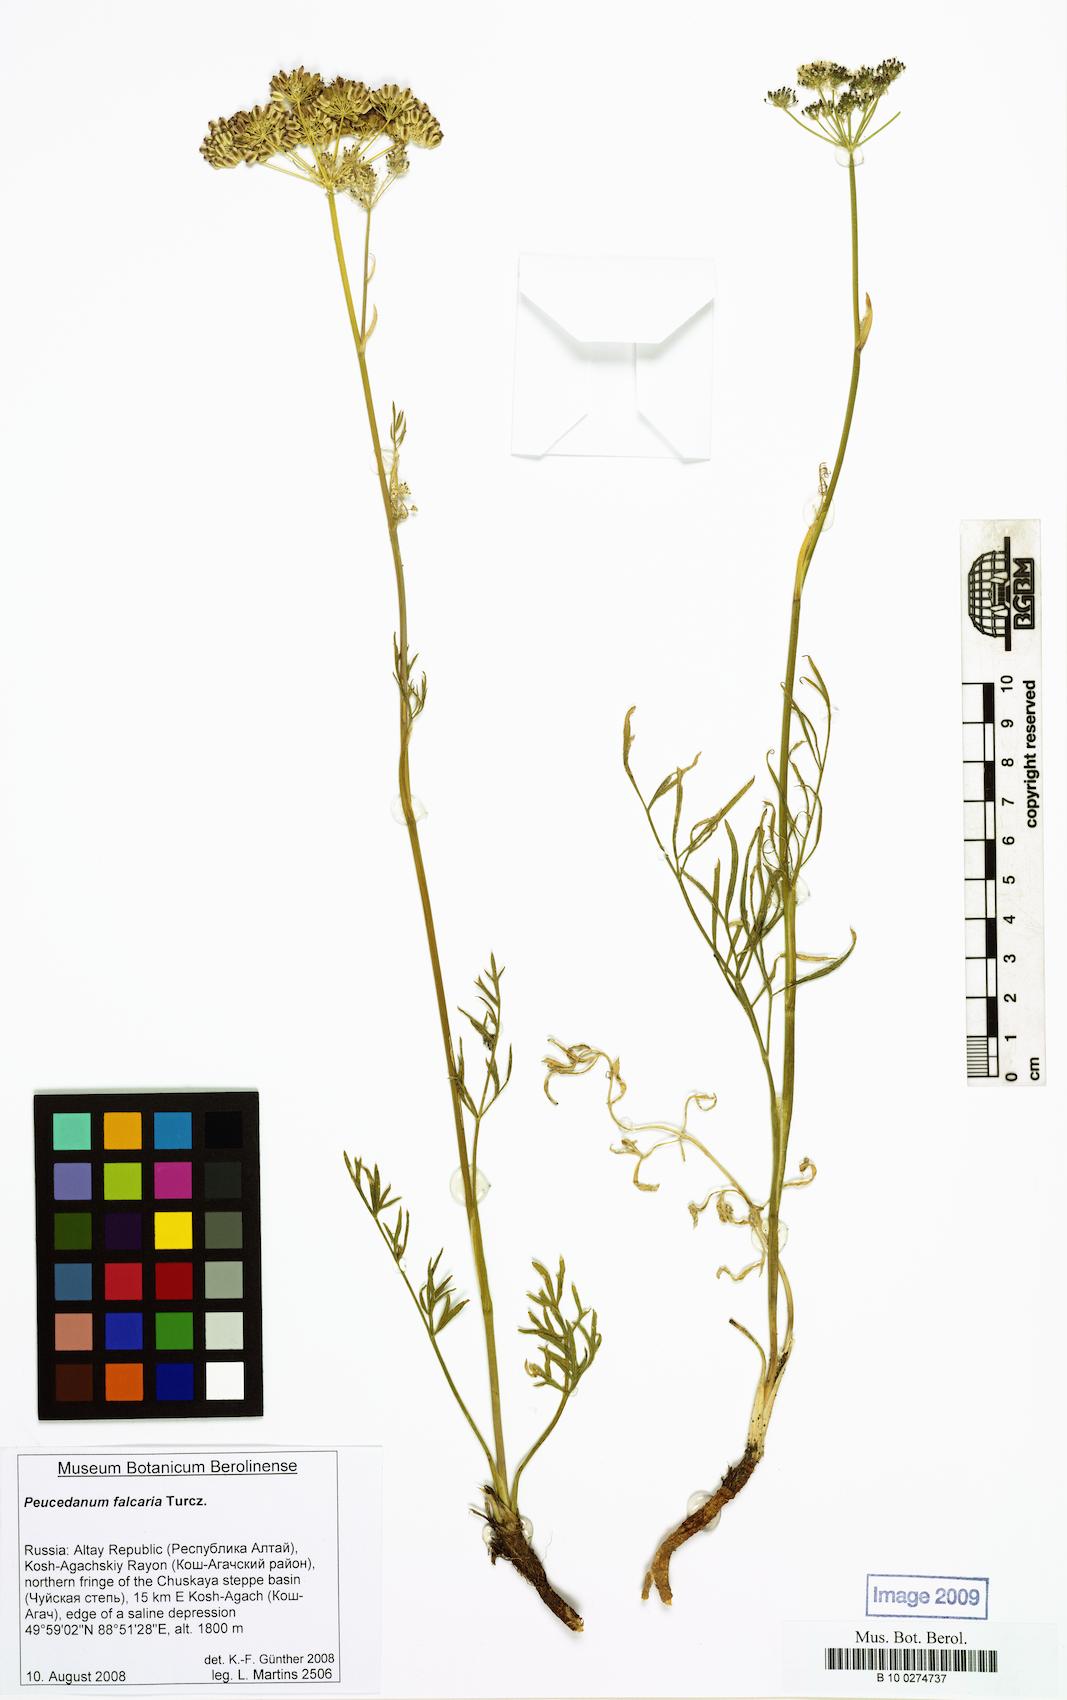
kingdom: Plantae
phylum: Tracheophyta
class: Magnoliopsida
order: Apiales
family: Apiaceae
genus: Haloselinum
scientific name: Haloselinum falcaria
